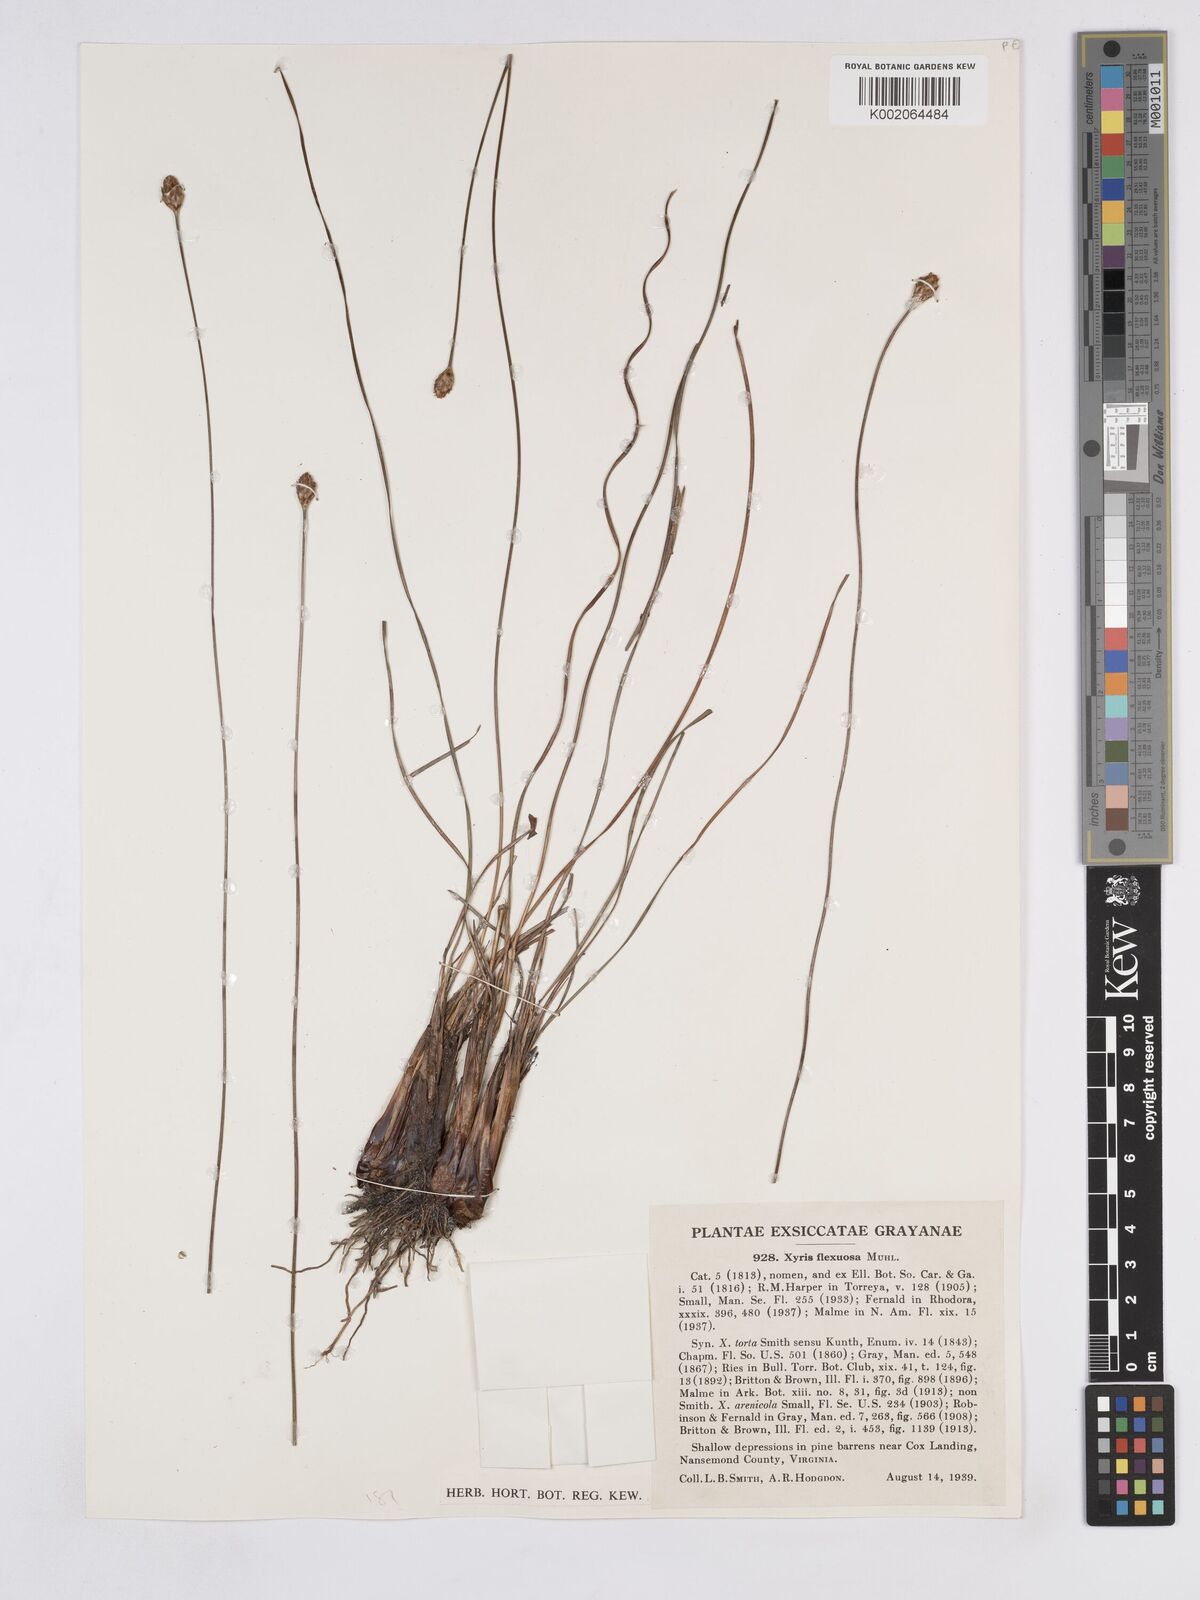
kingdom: Plantae
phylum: Tracheophyta
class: Liliopsida
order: Poales
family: Xyridaceae
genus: Xyris
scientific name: Xyris caroliniana
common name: Carolina yellow-eyed-grass
